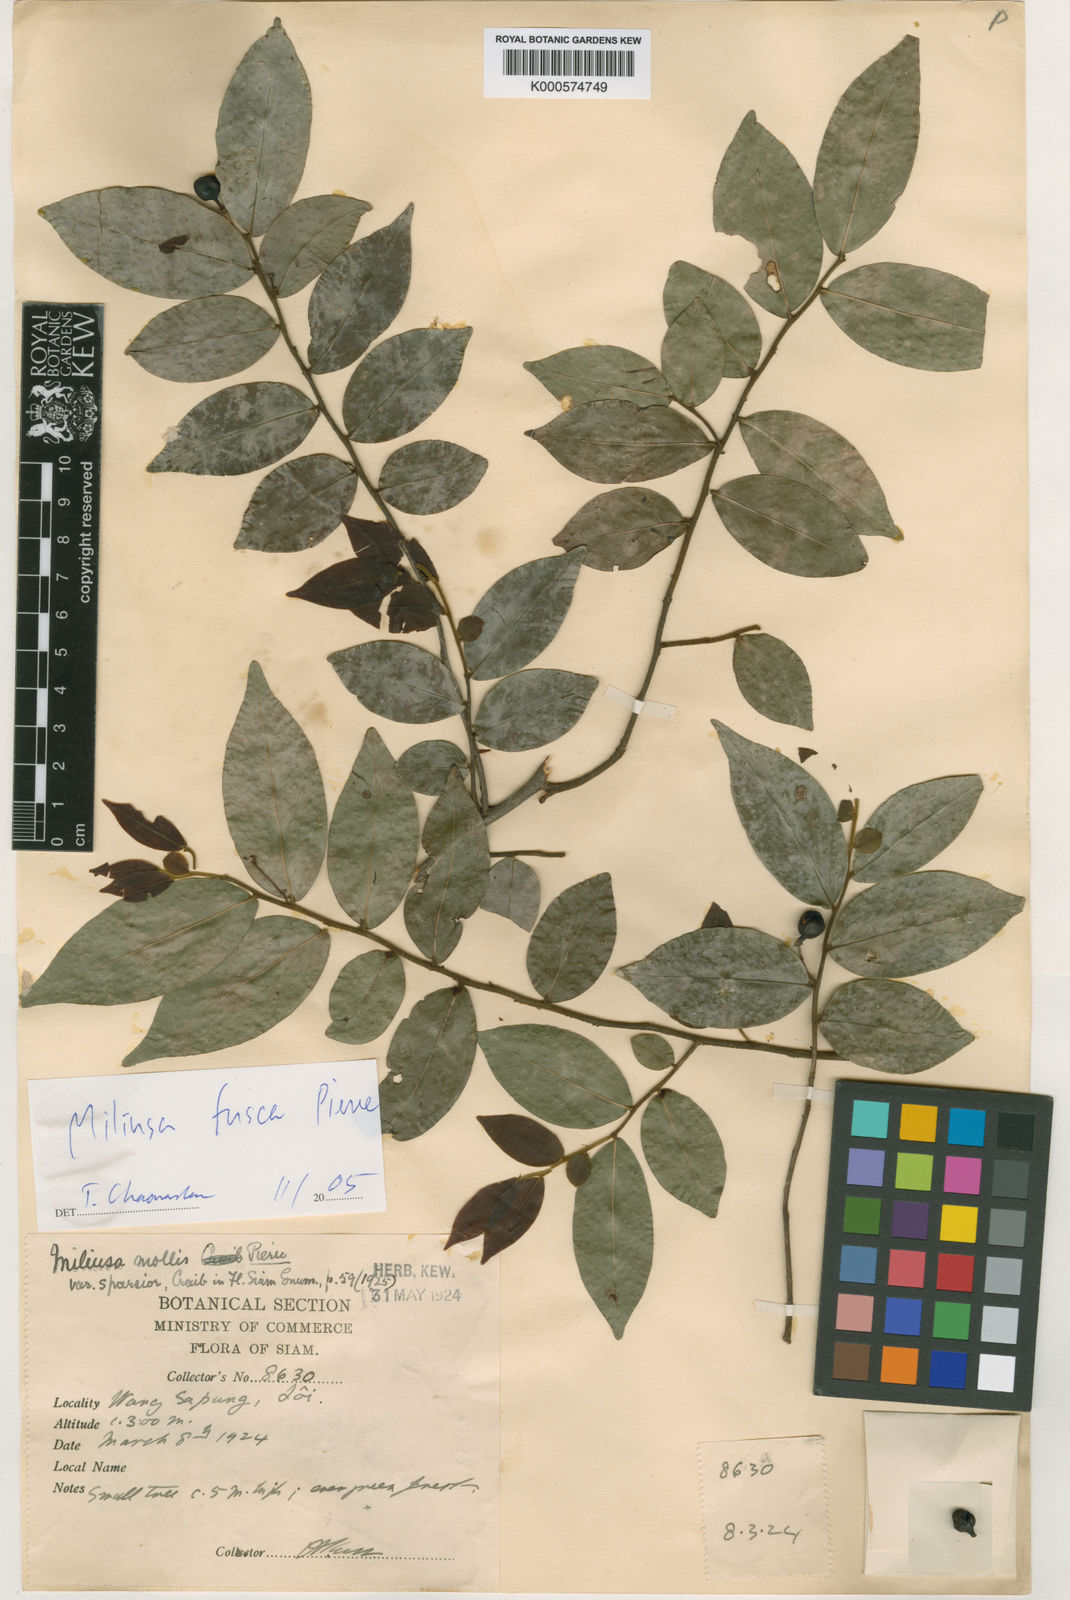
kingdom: Plantae
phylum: Tracheophyta
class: Magnoliopsida
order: Magnoliales
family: Annonaceae
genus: Miliusa
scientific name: Miliusa mollis
